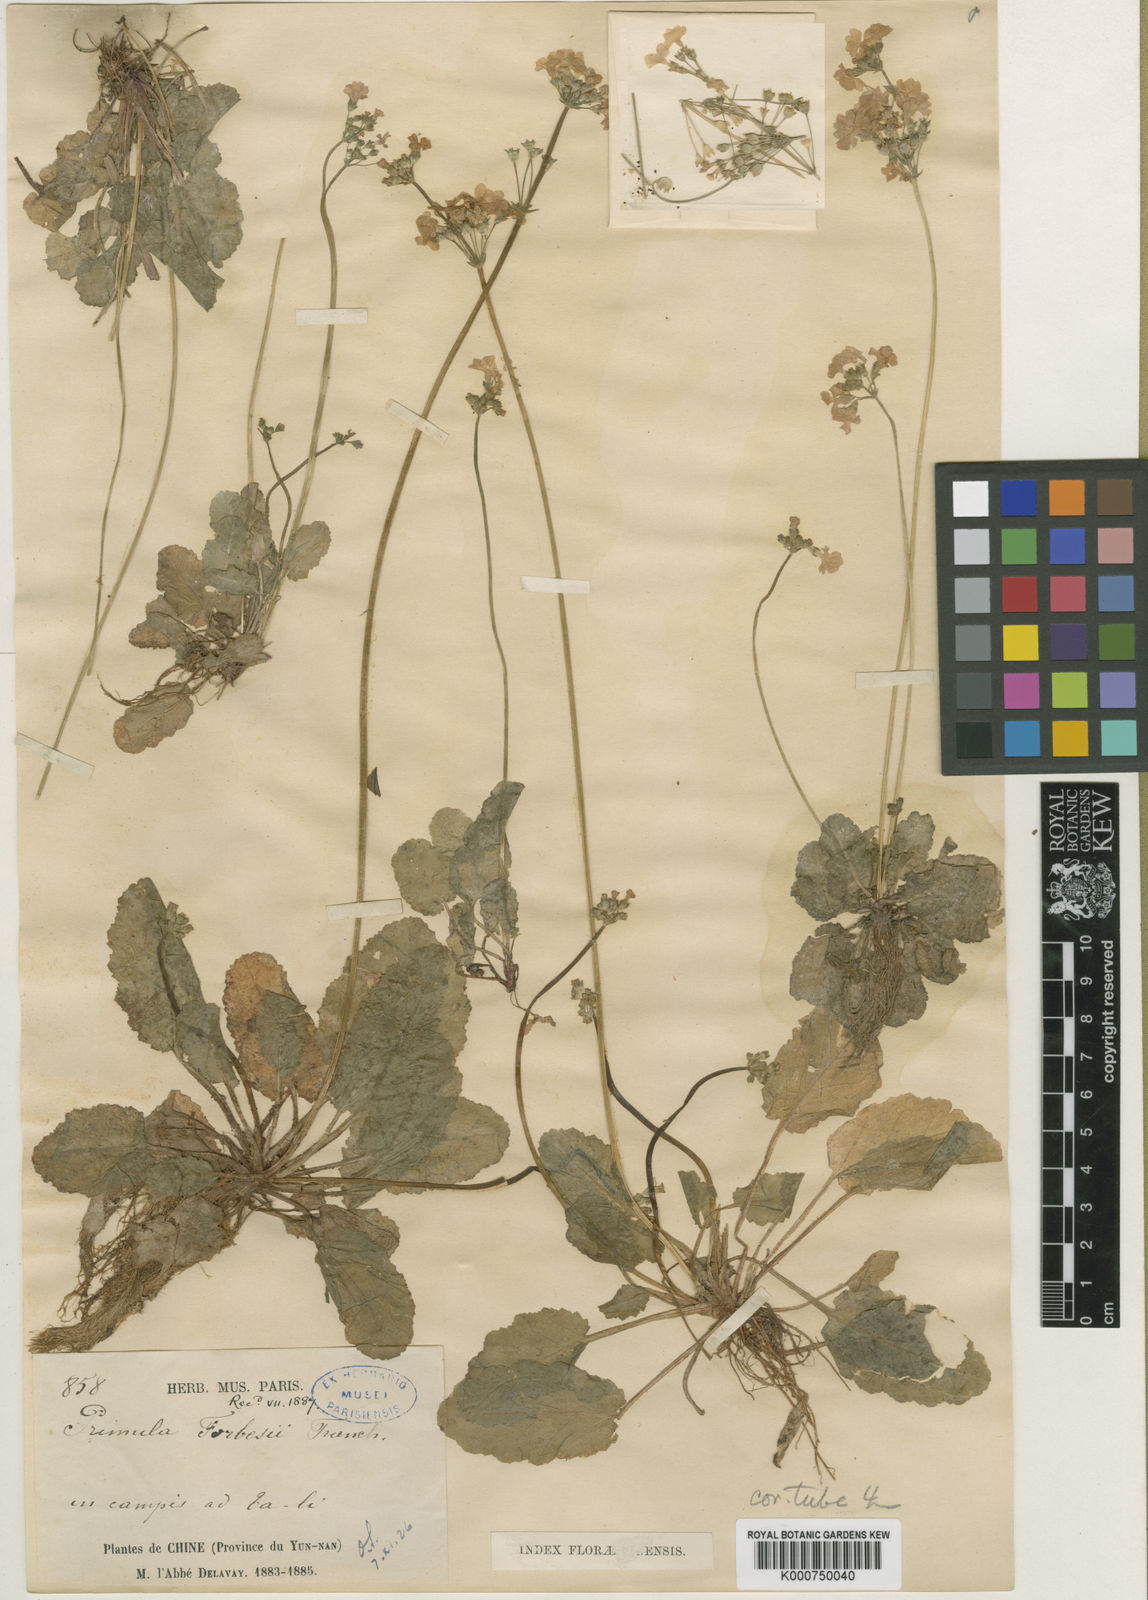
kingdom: Plantae
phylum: Tracheophyta
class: Magnoliopsida
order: Ericales
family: Primulaceae
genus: Primula
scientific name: Primula filipes
